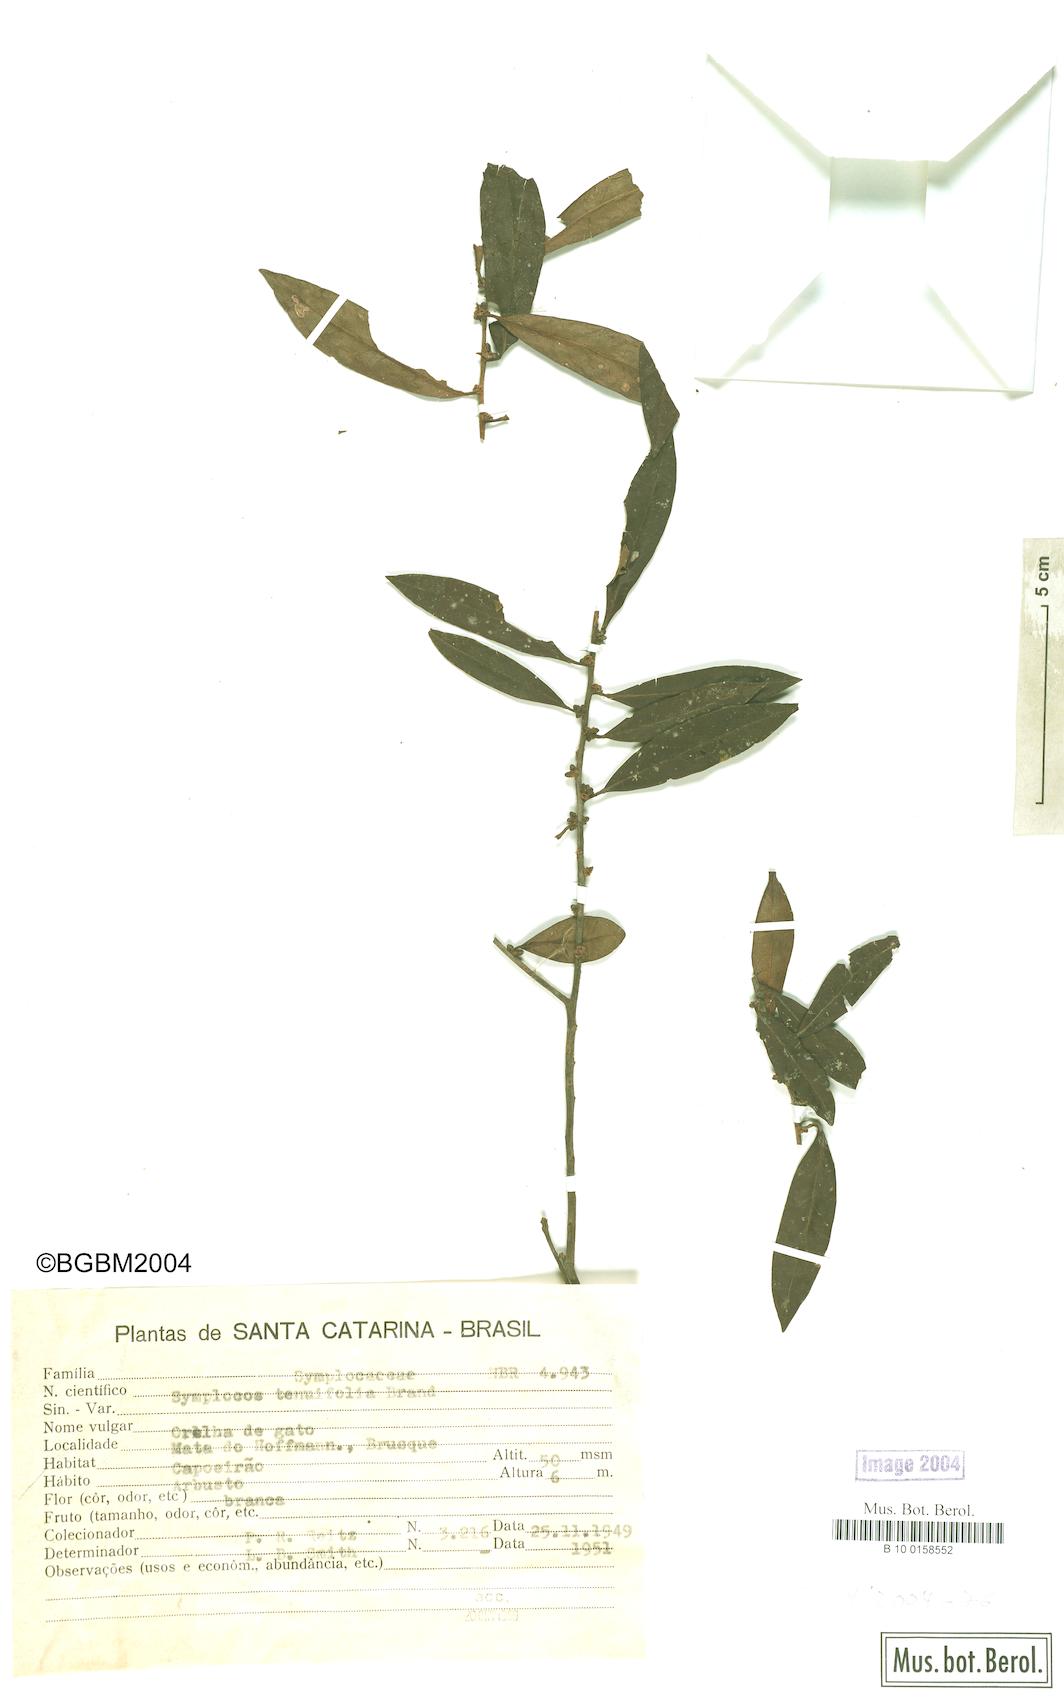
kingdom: Plantae
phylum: Tracheophyta
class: Magnoliopsida
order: Ericales
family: Symplocaceae
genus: Symplocos
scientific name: Symplocos tenuifolia
